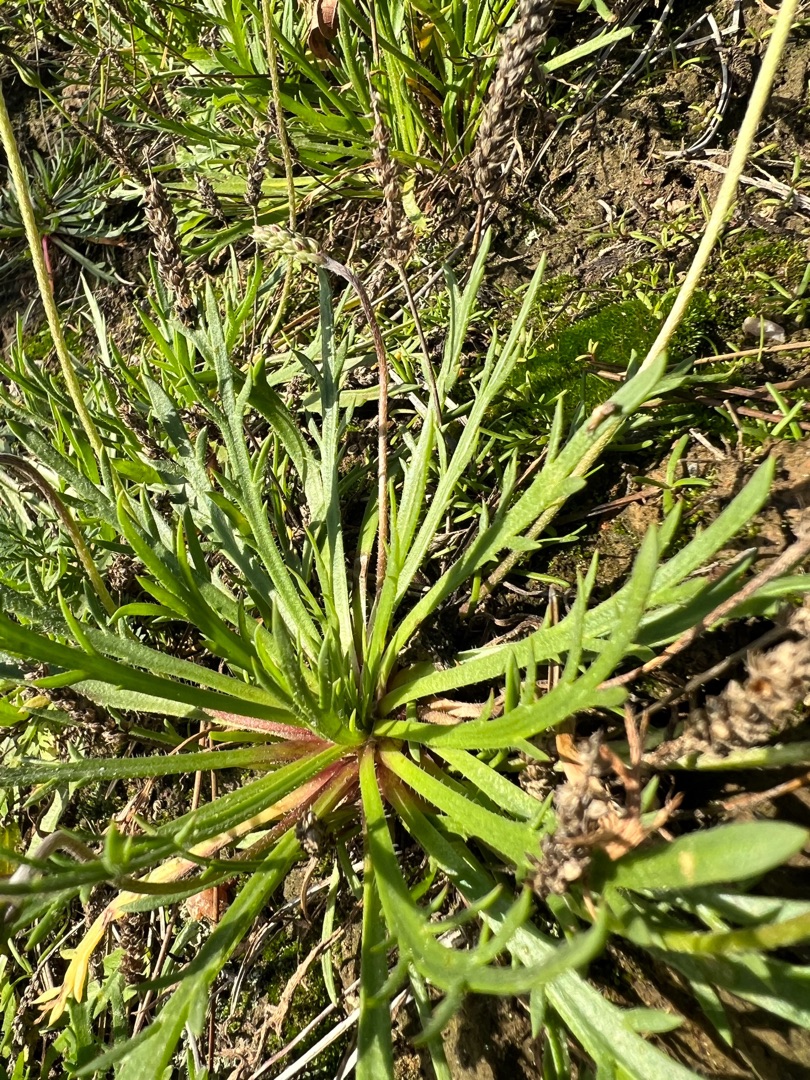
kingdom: Plantae
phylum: Tracheophyta
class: Magnoliopsida
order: Lamiales
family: Plantaginaceae
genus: Plantago
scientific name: Plantago coronopus
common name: Fliget vejbred
